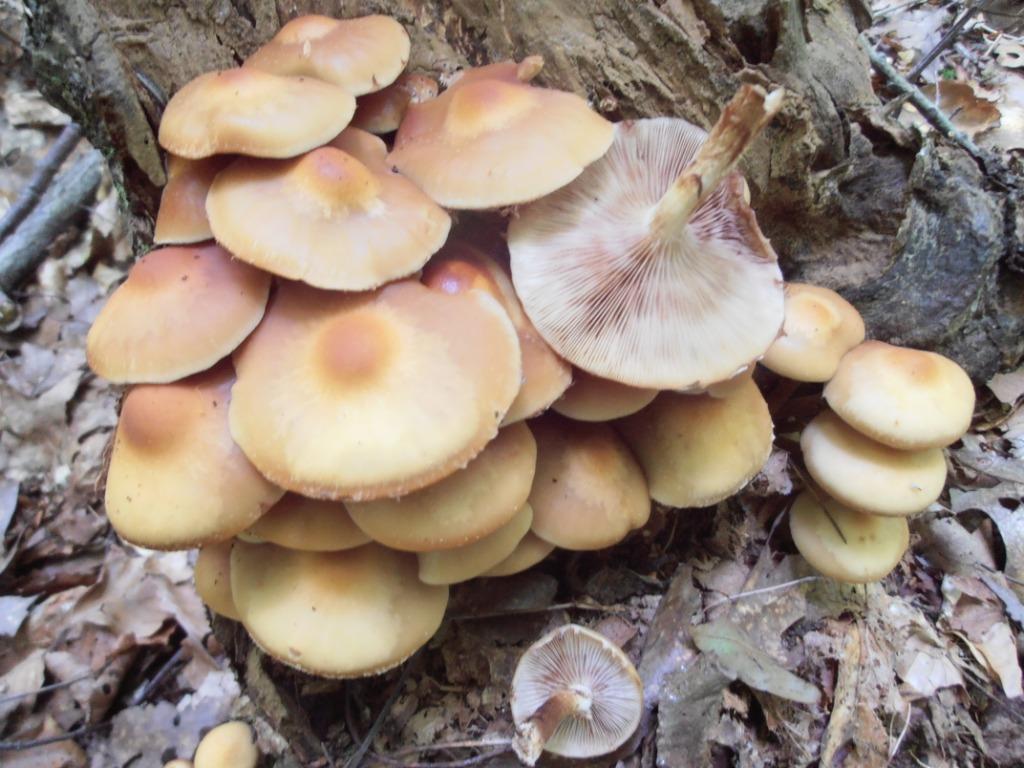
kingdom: Fungi
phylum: Basidiomycota
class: Agaricomycetes
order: Agaricales
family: Strophariaceae
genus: Kuehneromyces
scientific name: Kuehneromyces mutabilis
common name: foranderlig skælhat
